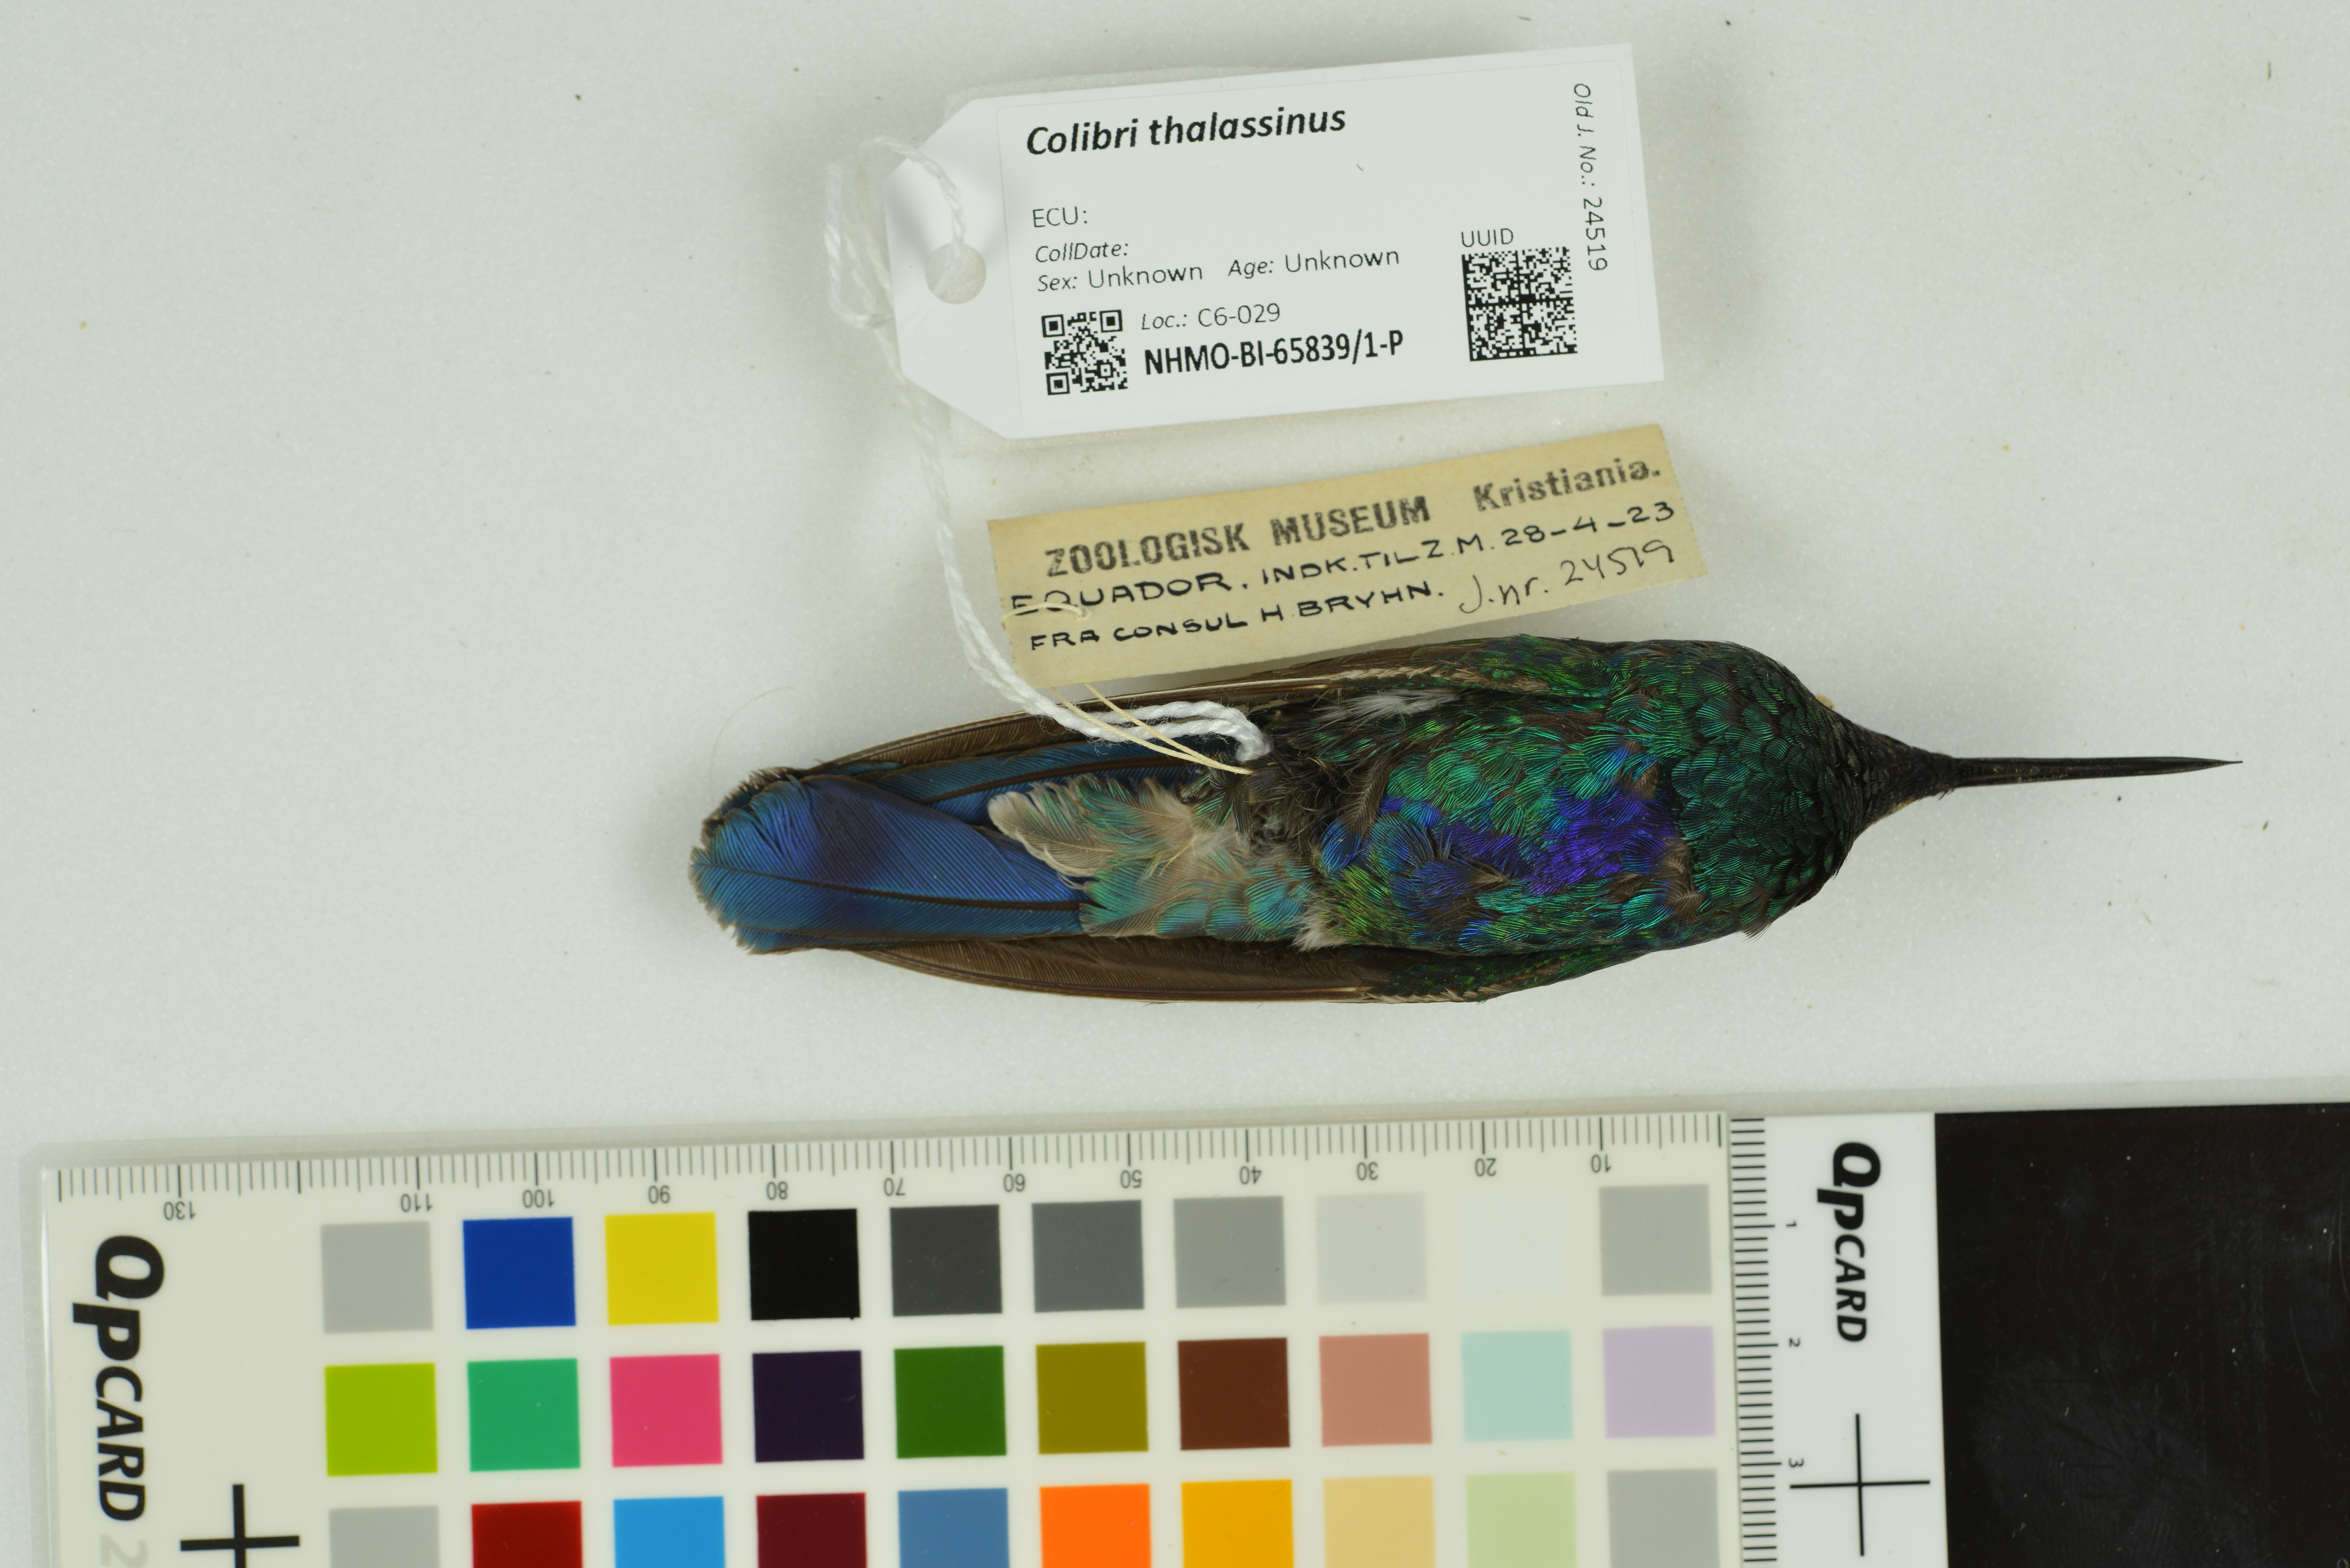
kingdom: Animalia
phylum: Chordata
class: Aves
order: Apodiformes
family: Trochilidae
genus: Colibri
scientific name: Colibri thalassinus
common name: Green violetear
